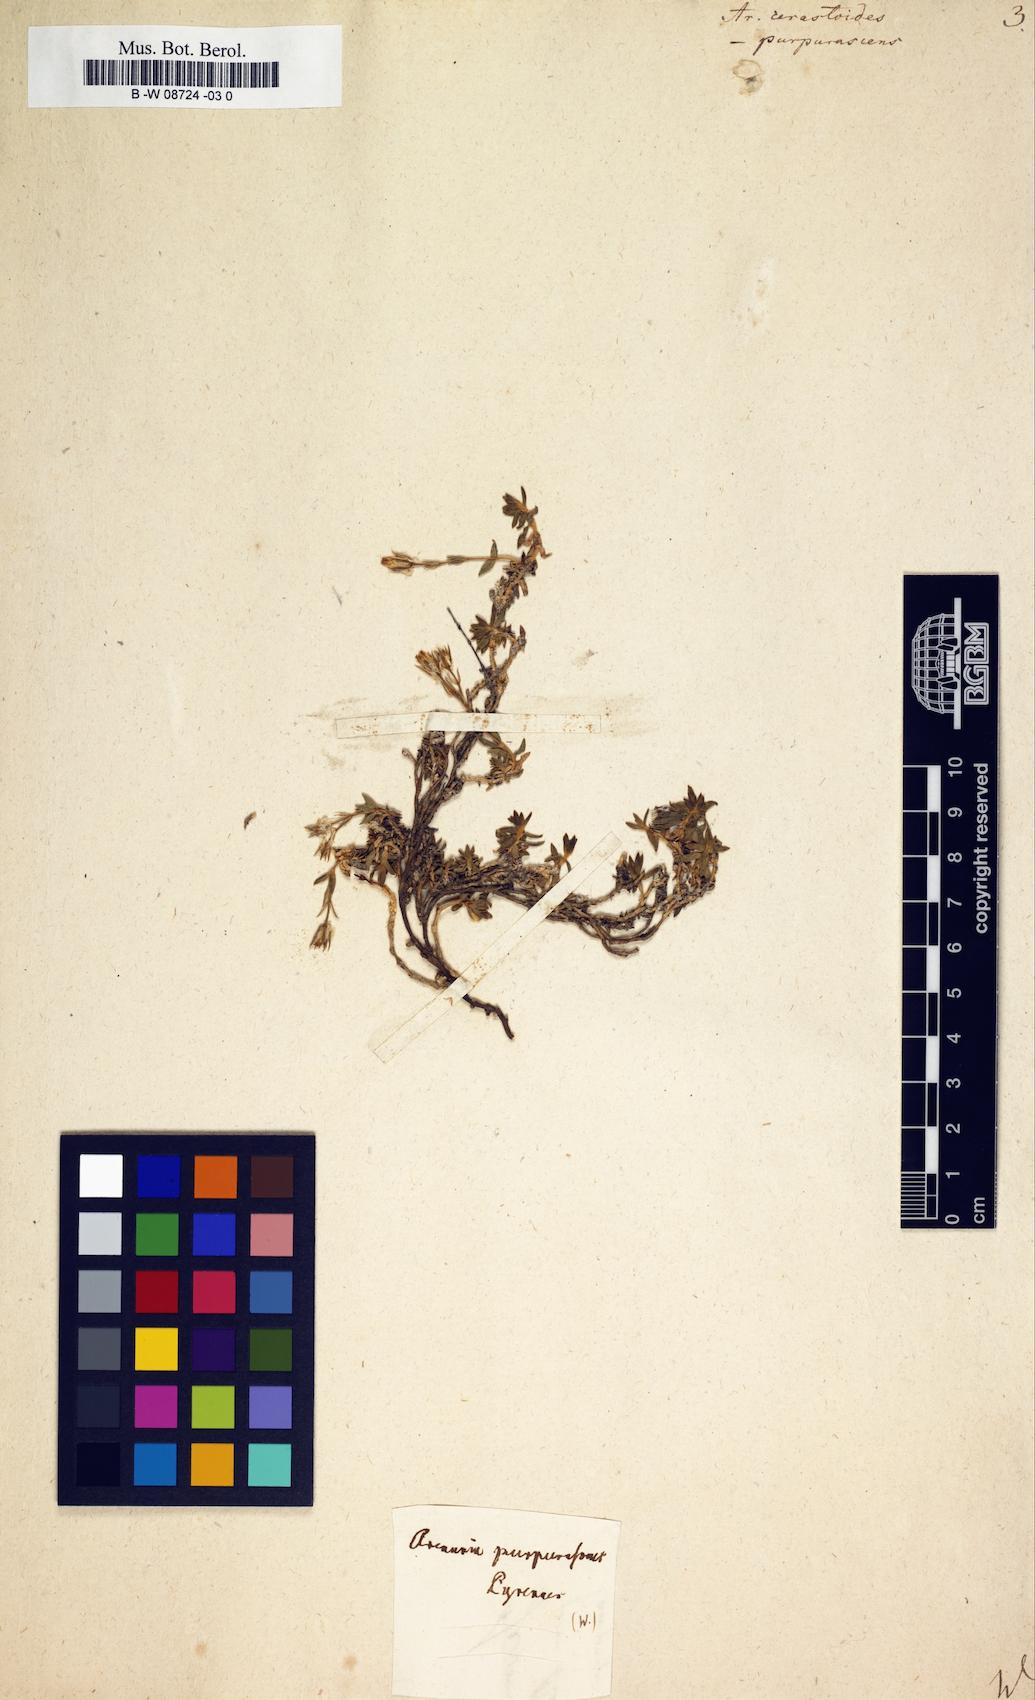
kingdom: Plantae
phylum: Tracheophyta
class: Magnoliopsida
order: Caryophyllales
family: Caryophyllaceae
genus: Arenaria
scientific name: Arenaria cerastioides
